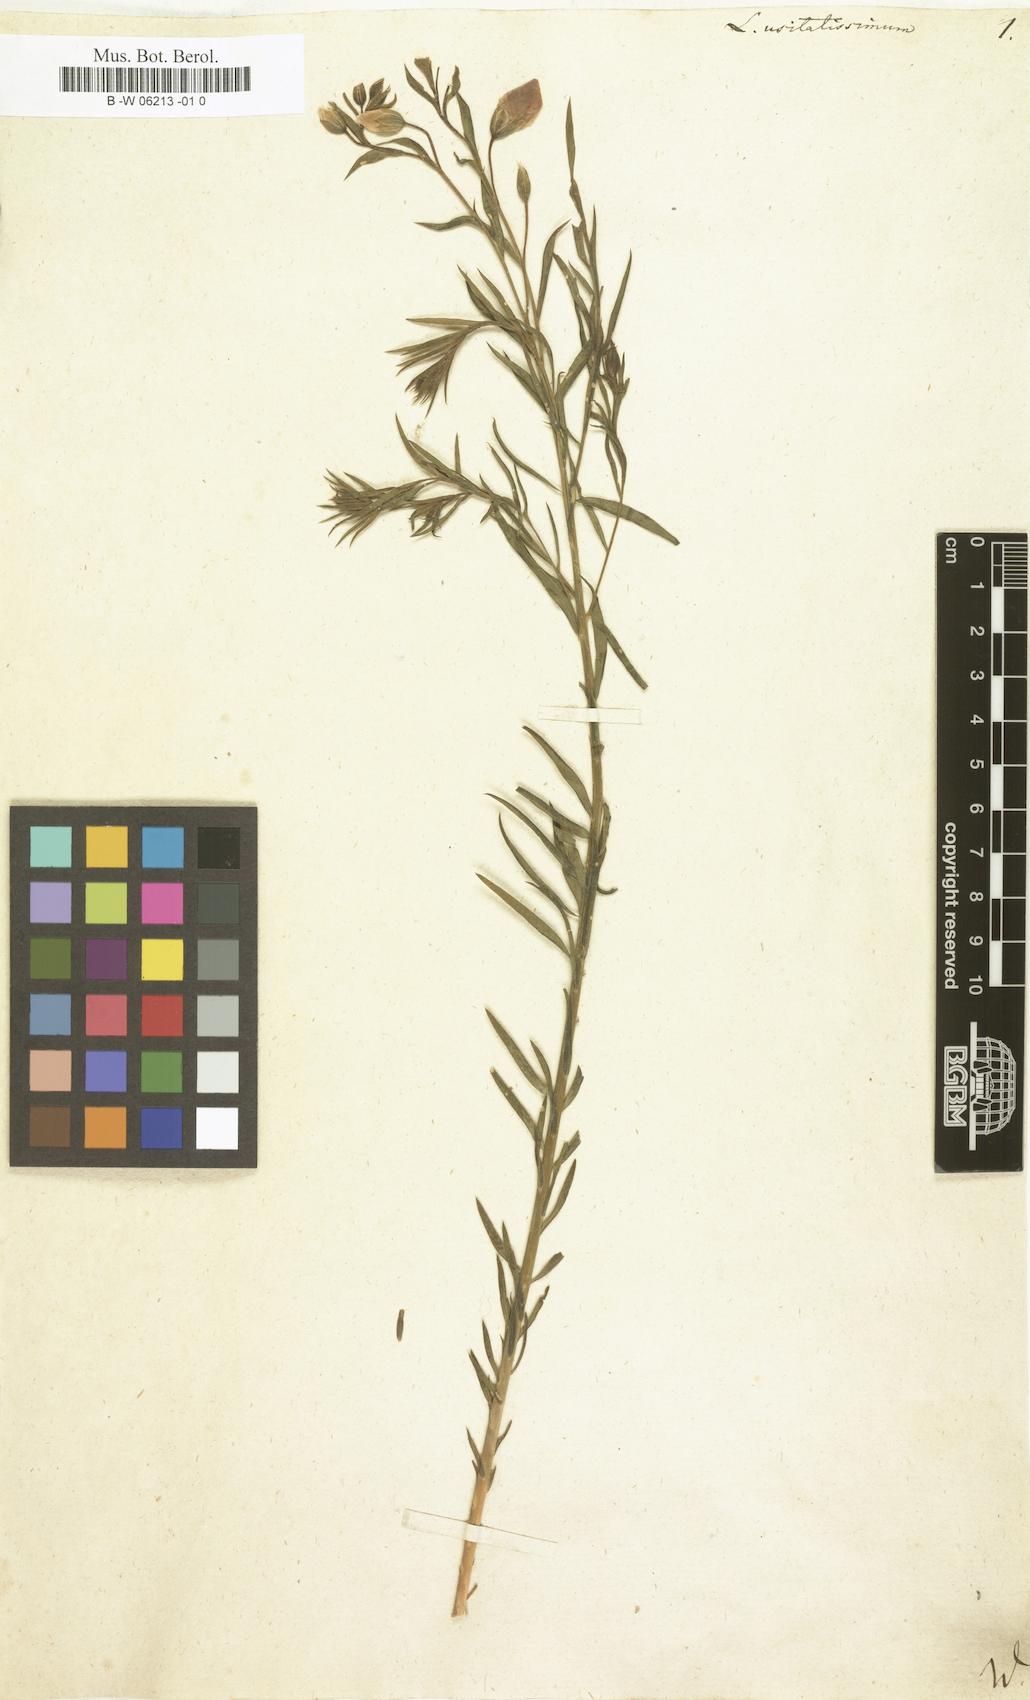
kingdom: Plantae
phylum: Tracheophyta
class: Magnoliopsida
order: Malpighiales
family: Linaceae
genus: Linum
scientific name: Linum usitatissimum
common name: Flax
